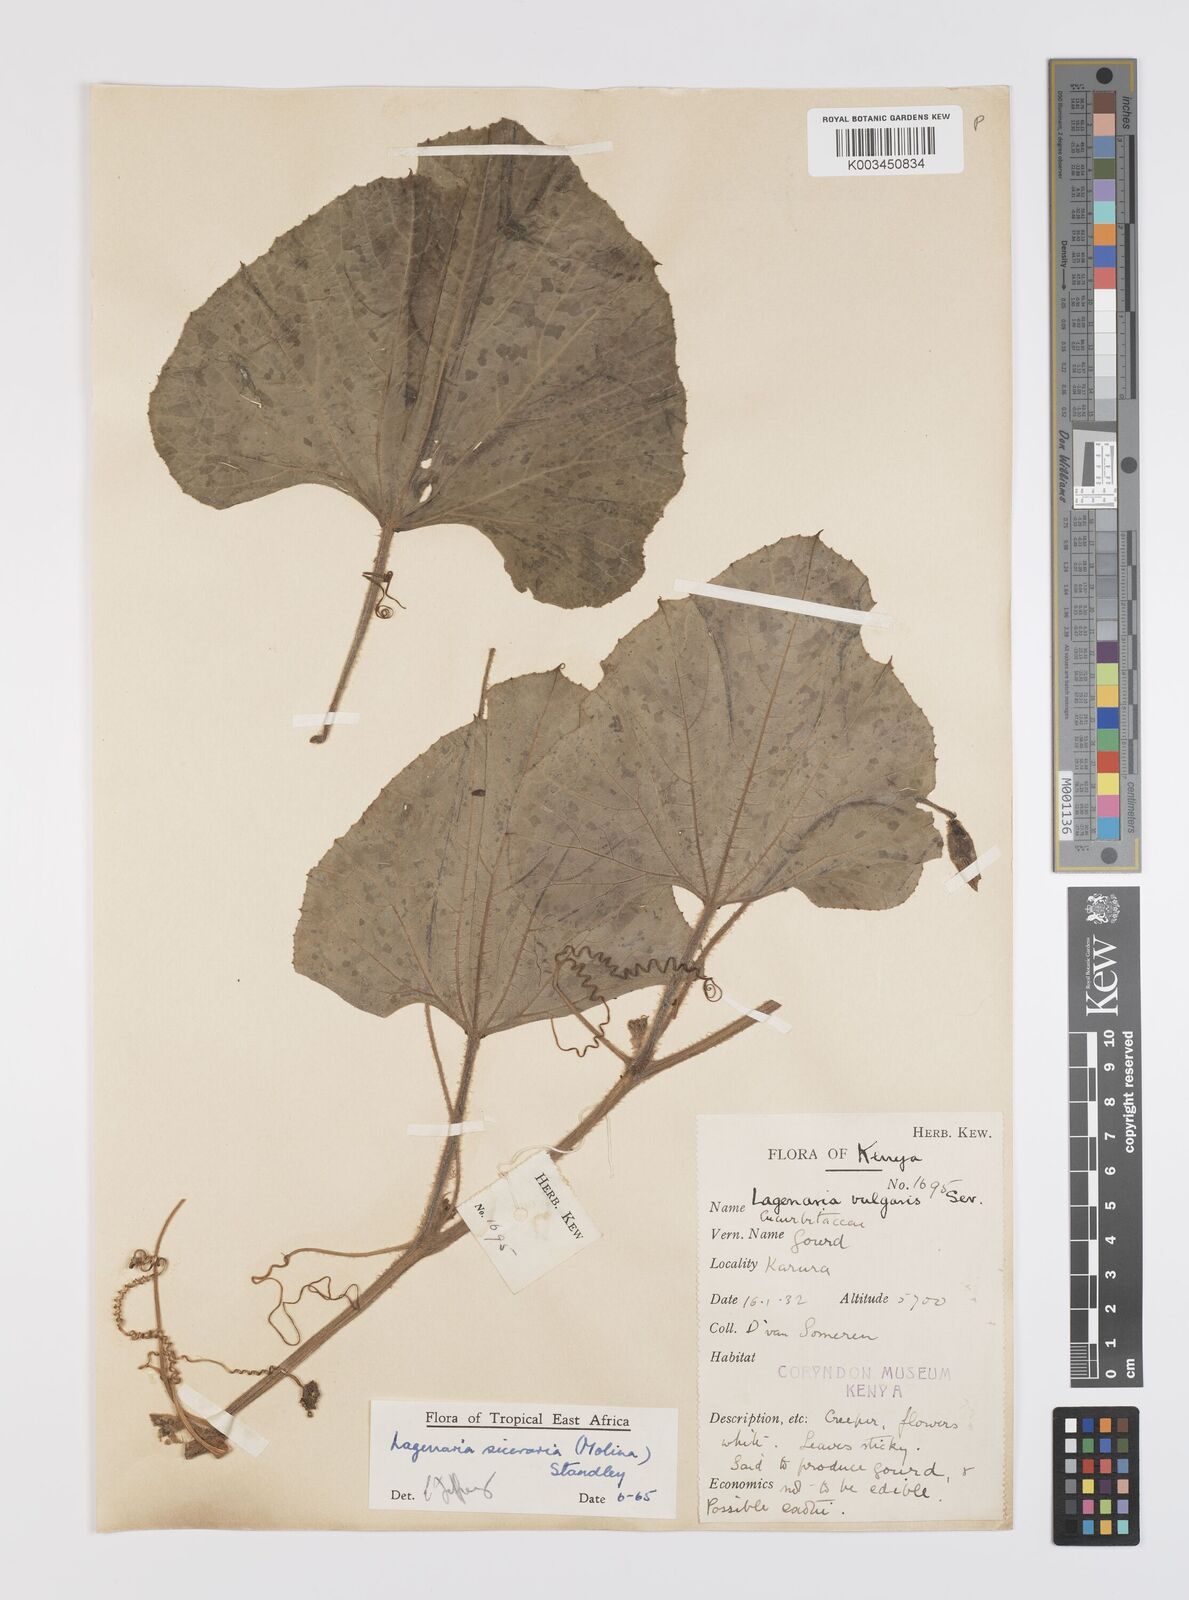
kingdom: Plantae
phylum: Tracheophyta
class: Magnoliopsida
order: Cucurbitales
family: Cucurbitaceae
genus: Lagenaria
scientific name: Lagenaria siceraria
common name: Bottle gourd
